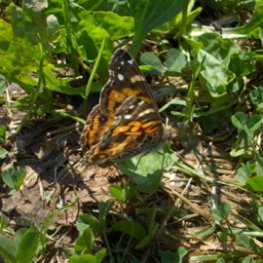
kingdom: Animalia
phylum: Arthropoda
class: Insecta
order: Lepidoptera
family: Nymphalidae
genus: Vanessa
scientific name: Vanessa virginiensis
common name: American Lady
